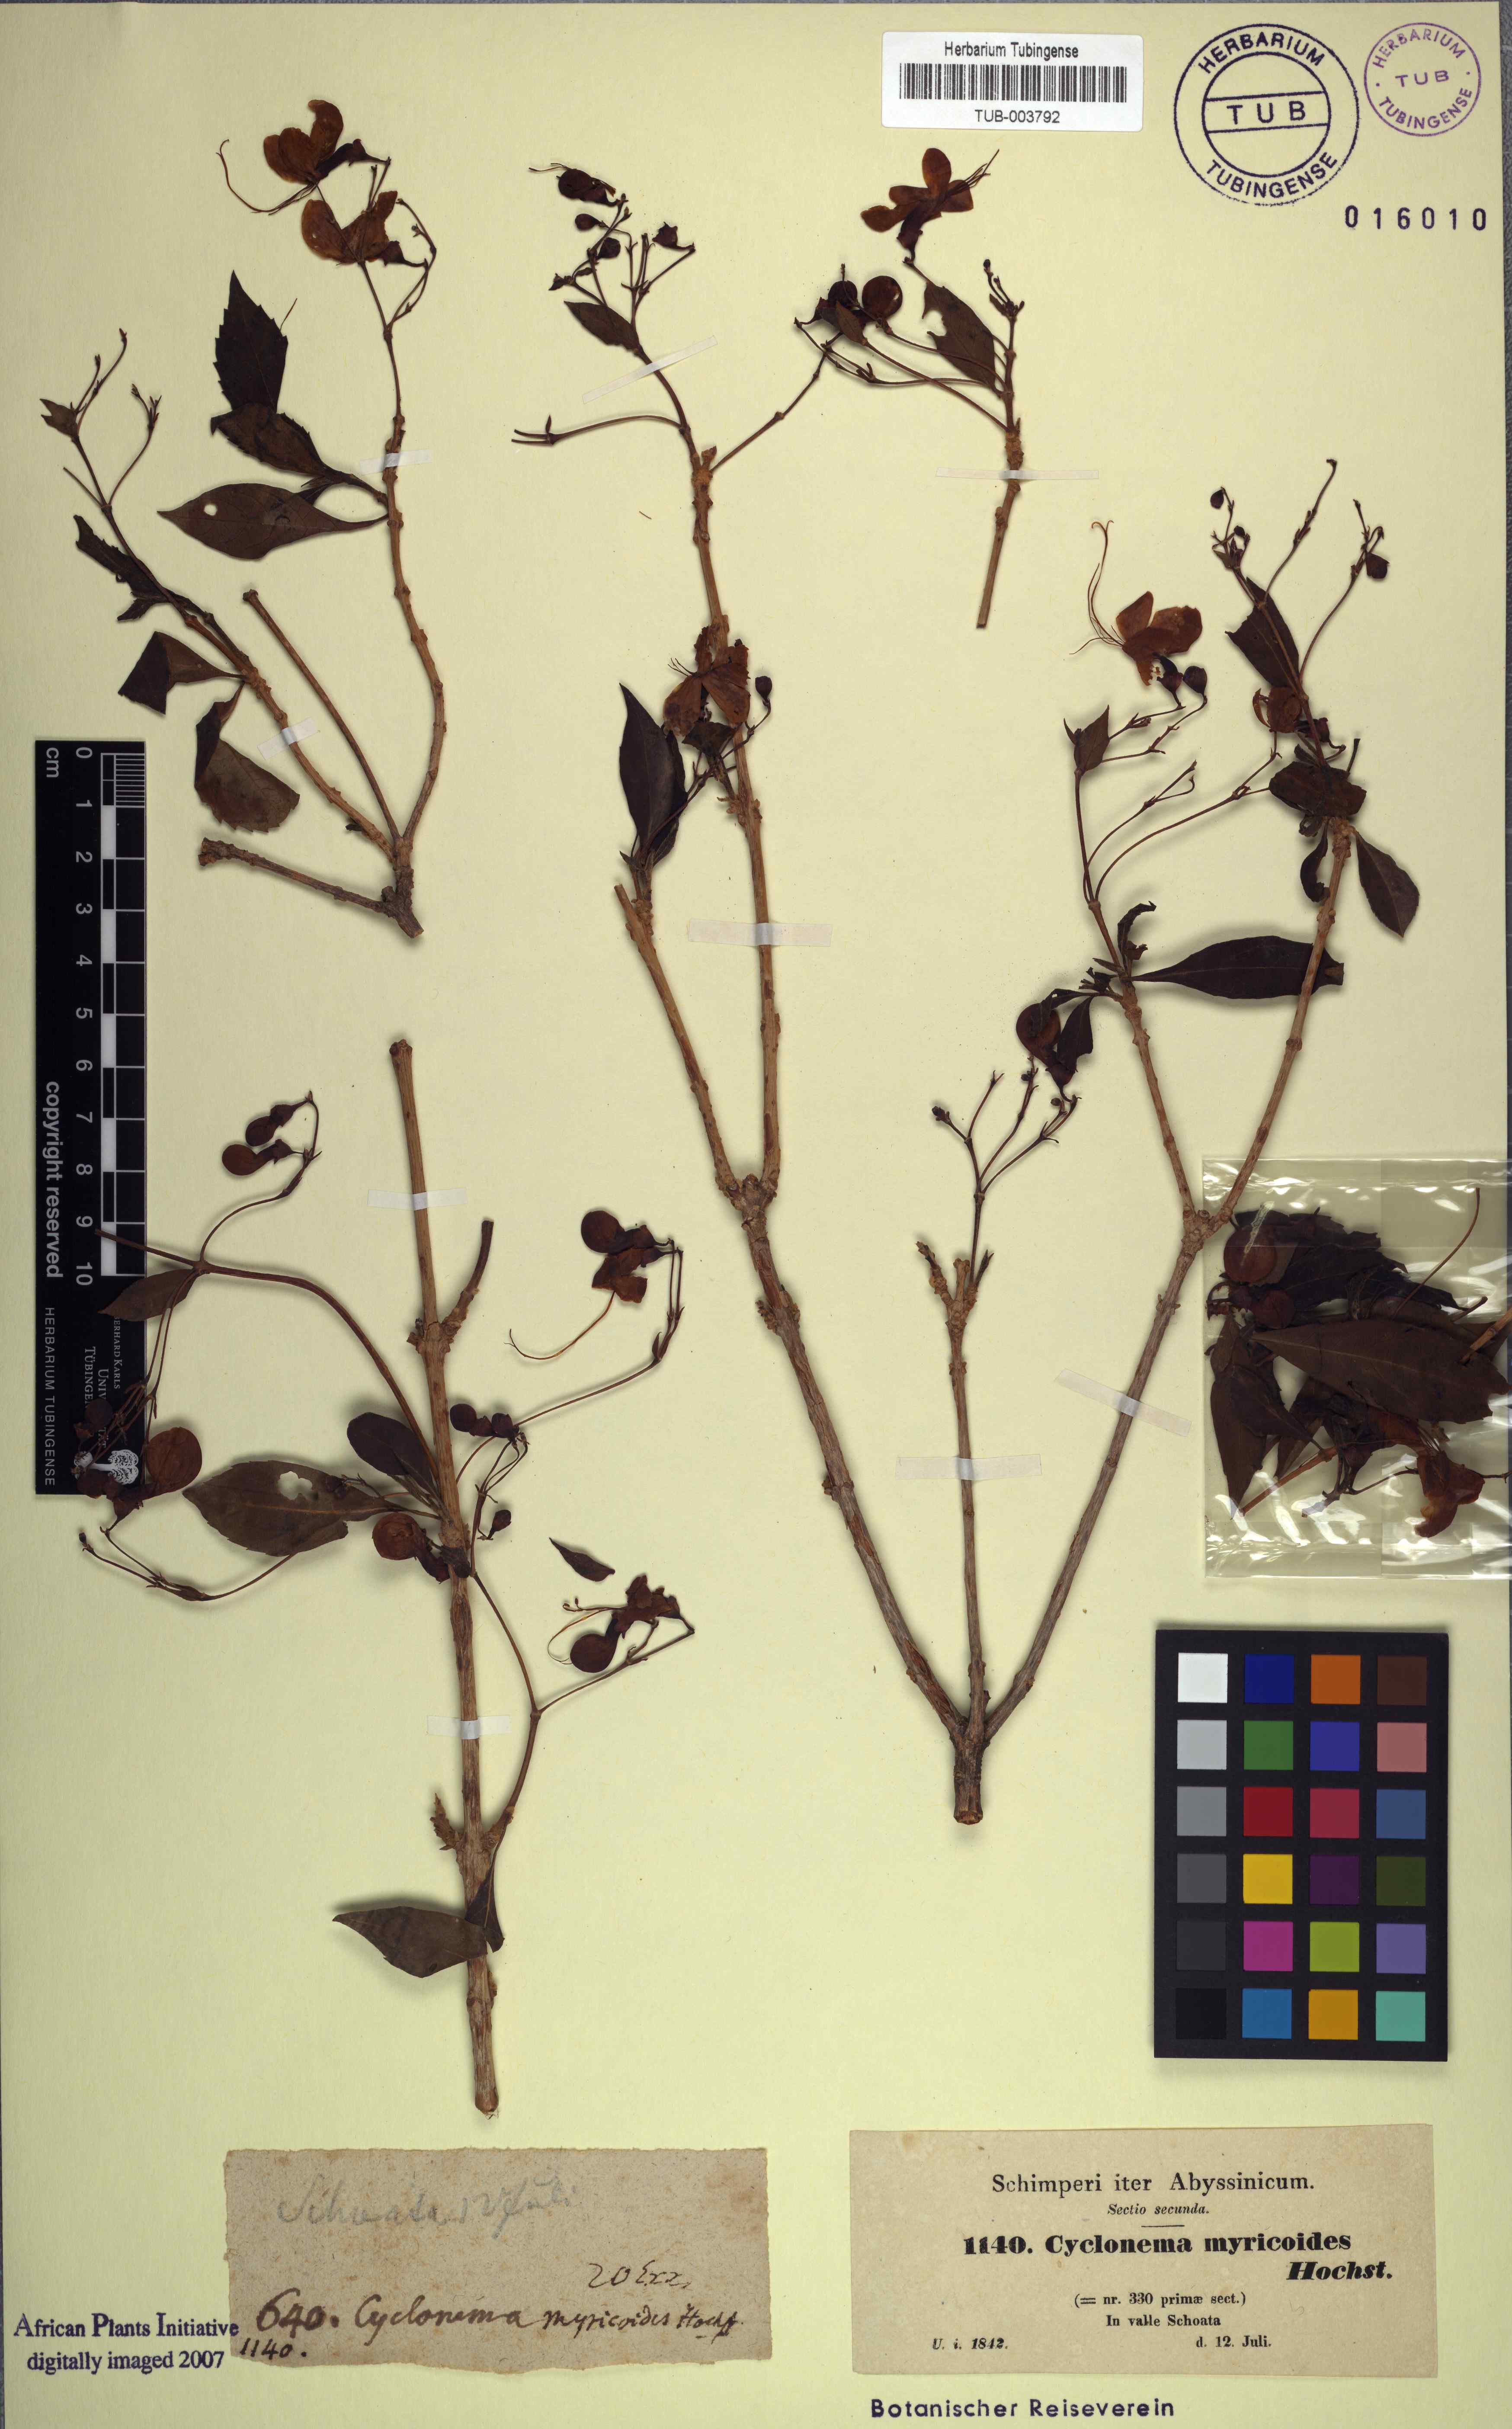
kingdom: Plantae
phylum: Tracheophyta
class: Magnoliopsida
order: Lamiales
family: Lamiaceae
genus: Rotheca
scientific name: Rotheca myricoides
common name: Cats-whiskers
